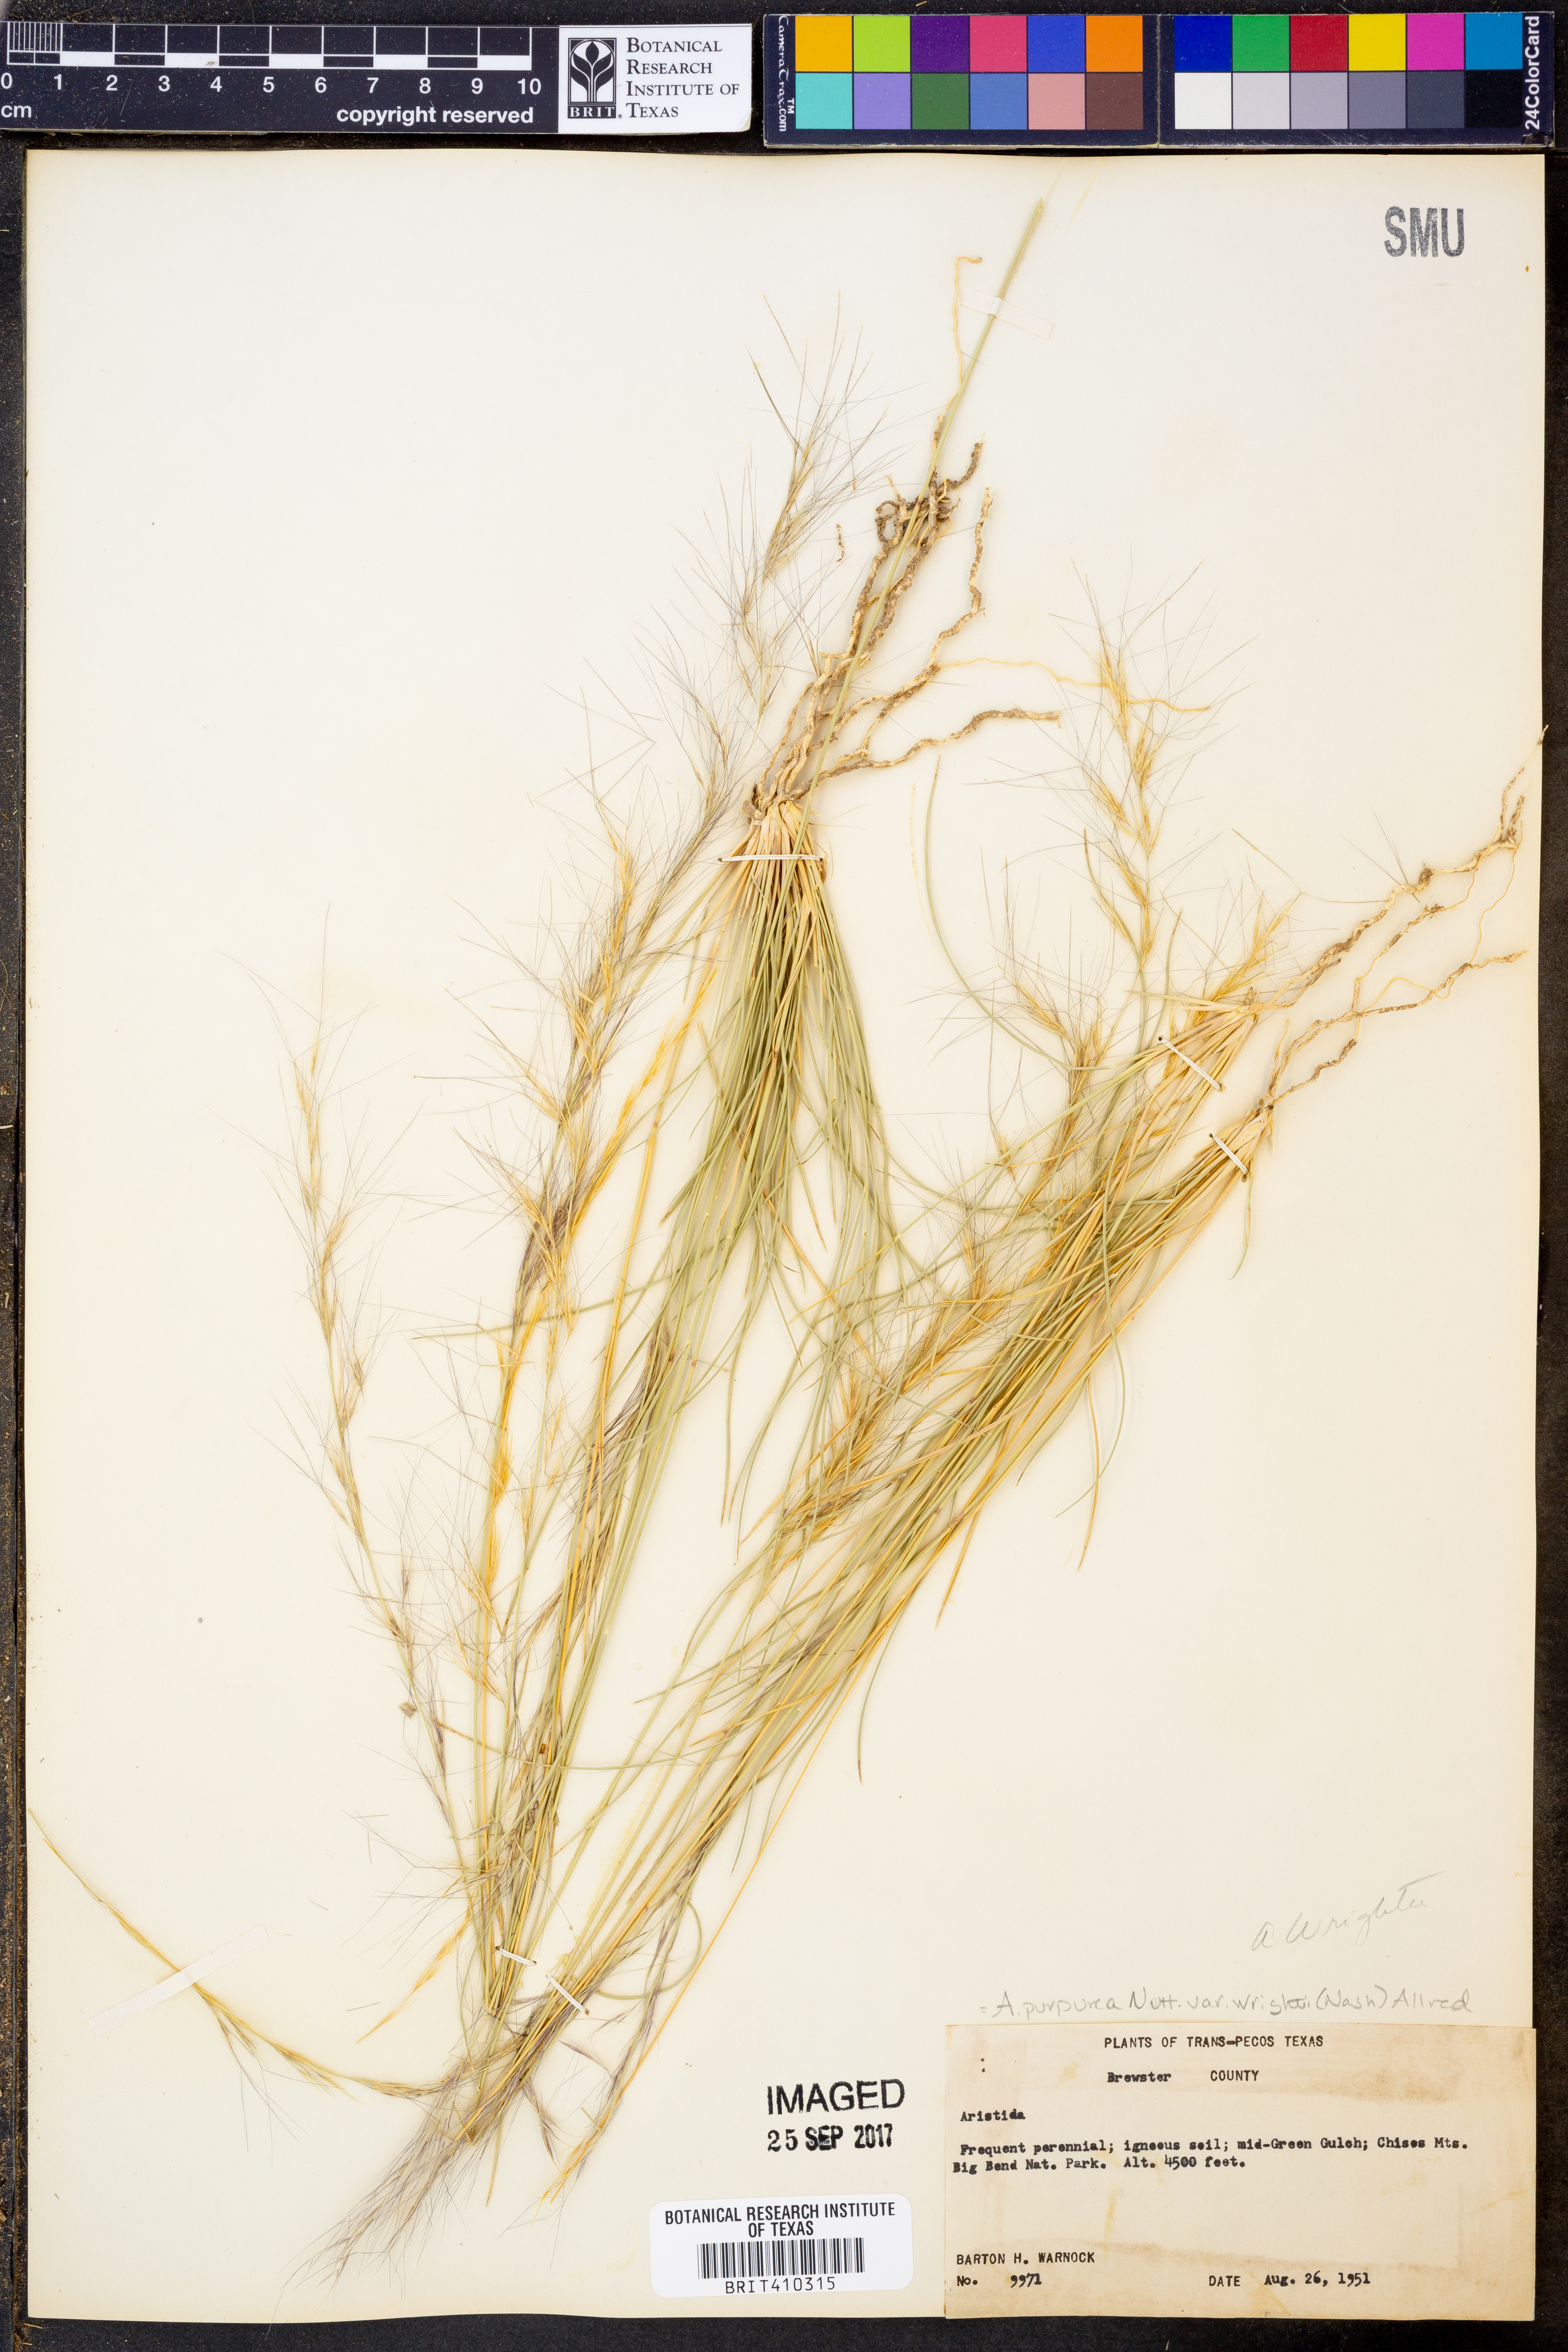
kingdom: Plantae
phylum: Tracheophyta
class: Liliopsida
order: Poales
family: Poaceae
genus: Aristida
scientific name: Aristida wrightii
